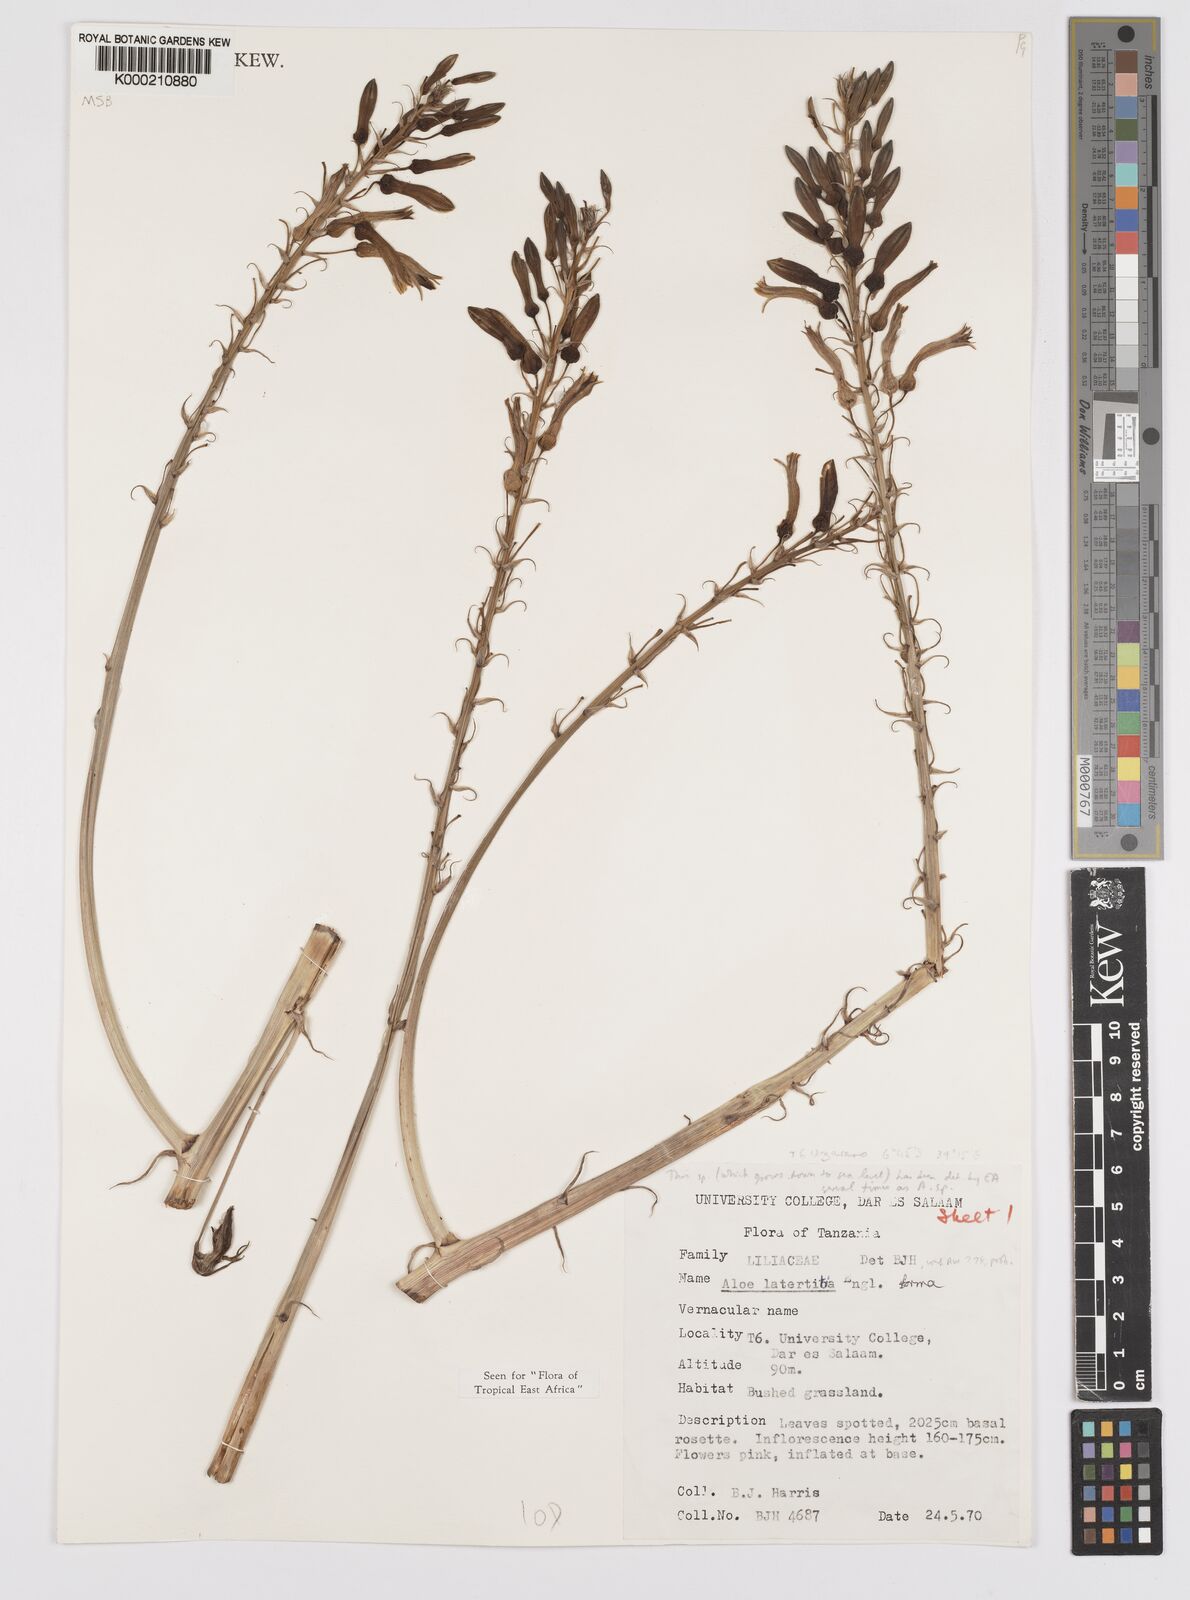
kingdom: Plantae
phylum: Tracheophyta
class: Liliopsida
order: Asparagales
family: Asphodelaceae
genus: Aloe
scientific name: Aloe lateritia
